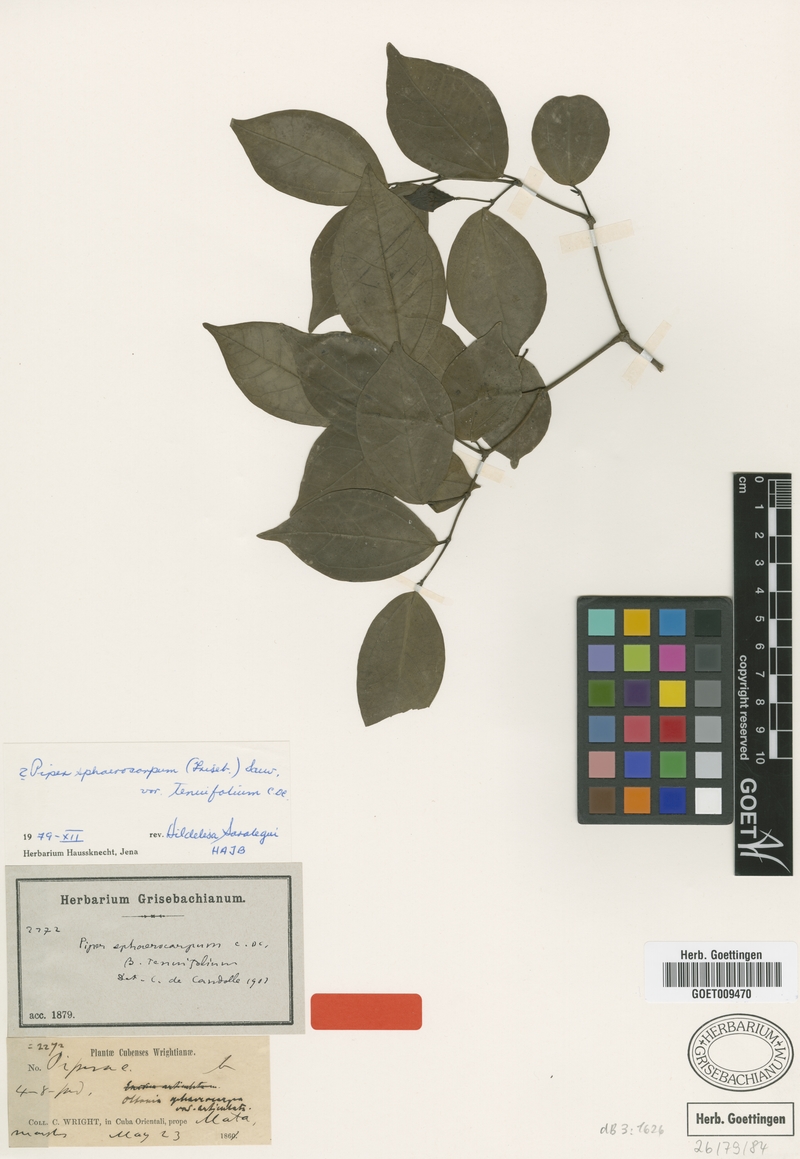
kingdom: Plantae
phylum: Tracheophyta
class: Magnoliopsida
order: Piperales
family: Piperaceae
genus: Piper
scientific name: Piper sphaerocarpum
